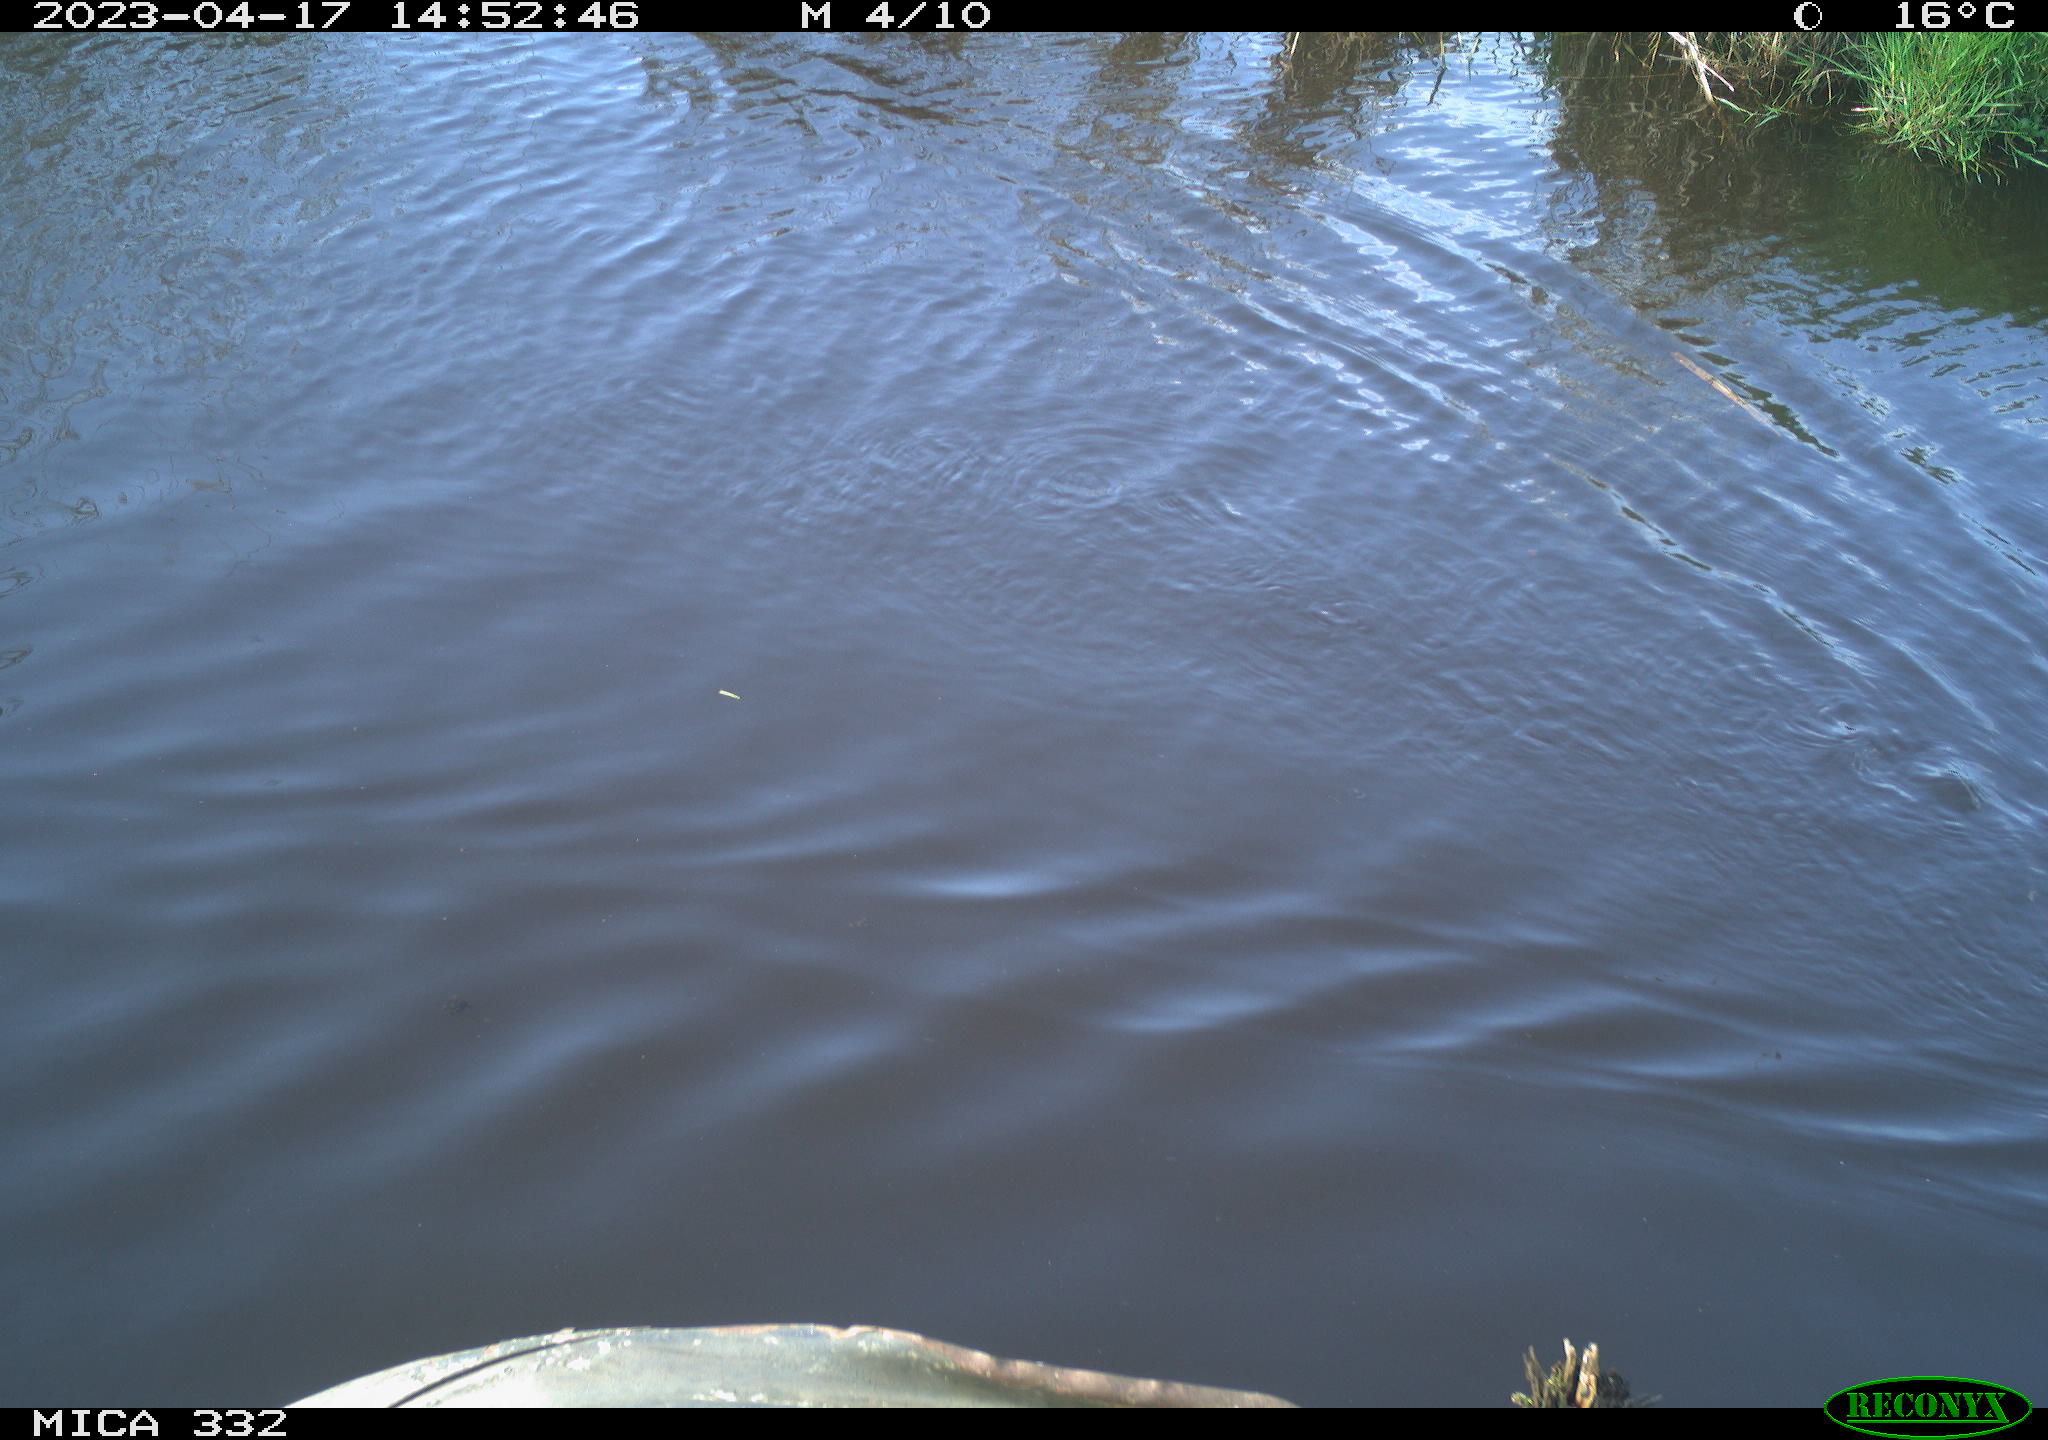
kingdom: Animalia
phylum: Chordata
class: Aves
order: Anseriformes
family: Anatidae
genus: Anas
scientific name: Anas
